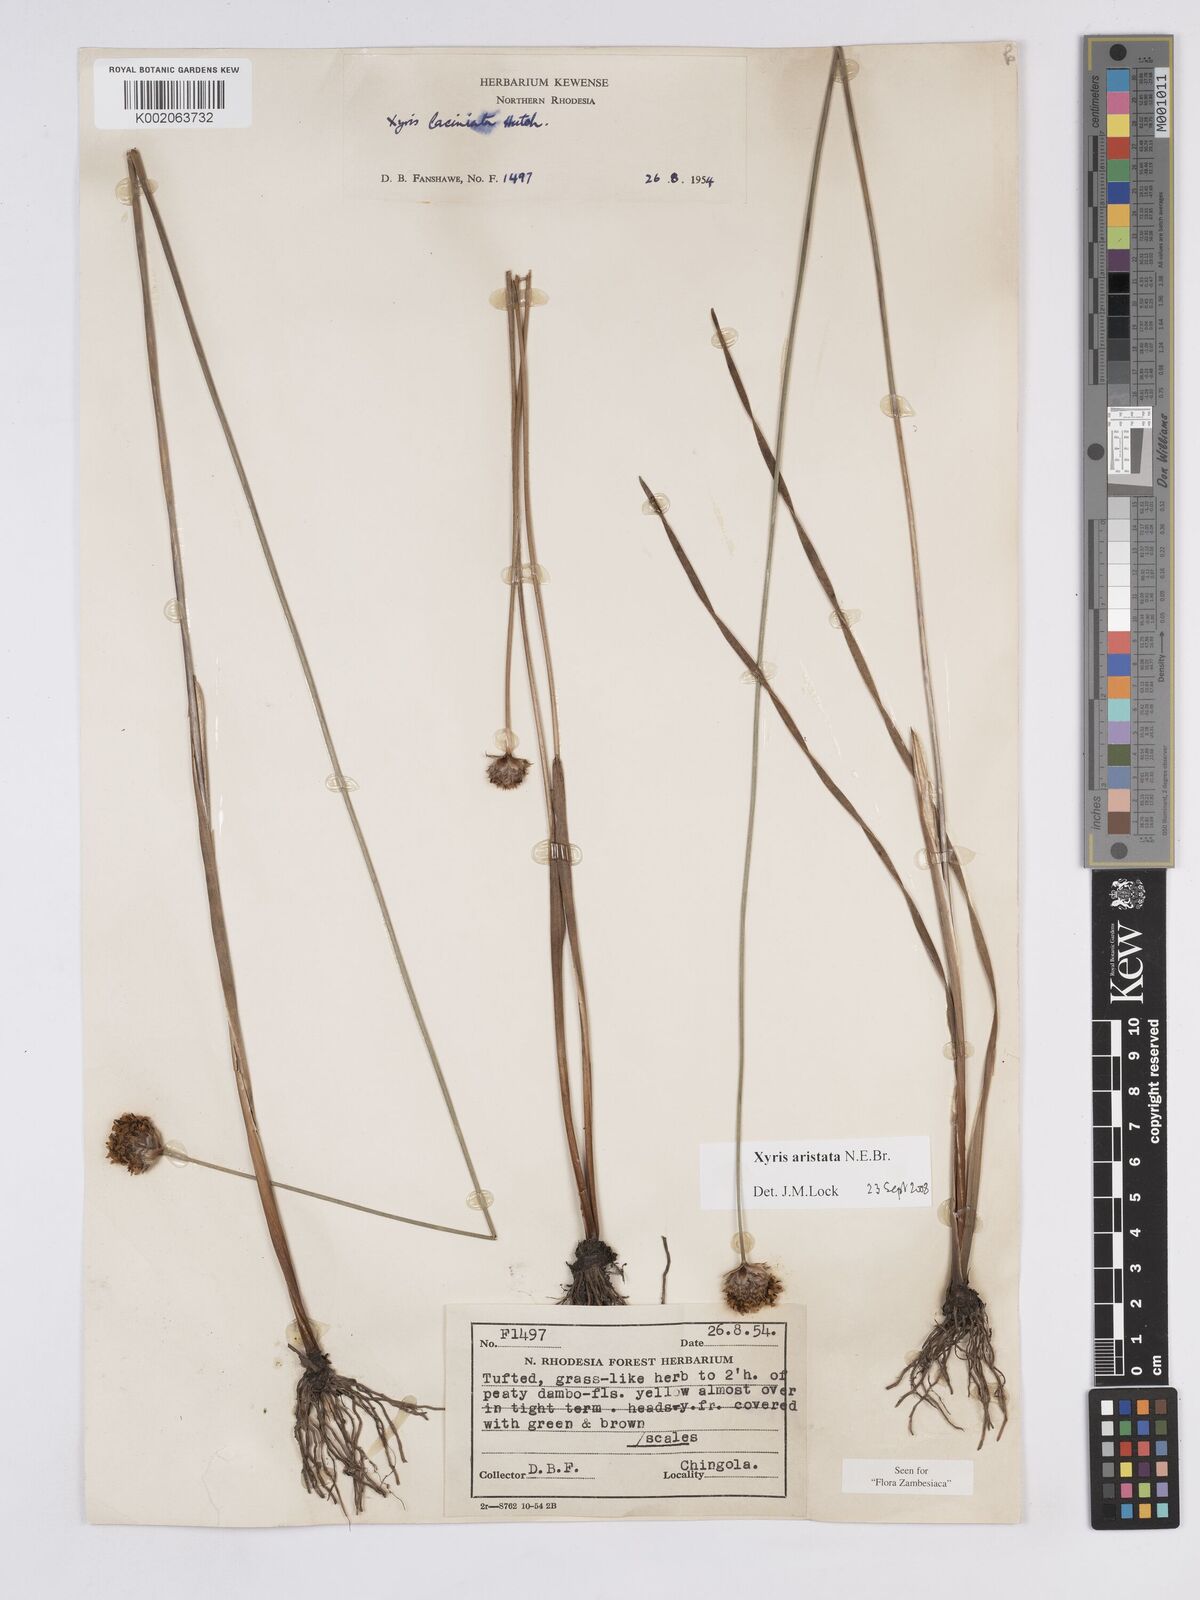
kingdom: Plantae
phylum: Tracheophyta
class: Liliopsida
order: Poales
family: Xyridaceae
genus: Xyris
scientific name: Xyris aristata
